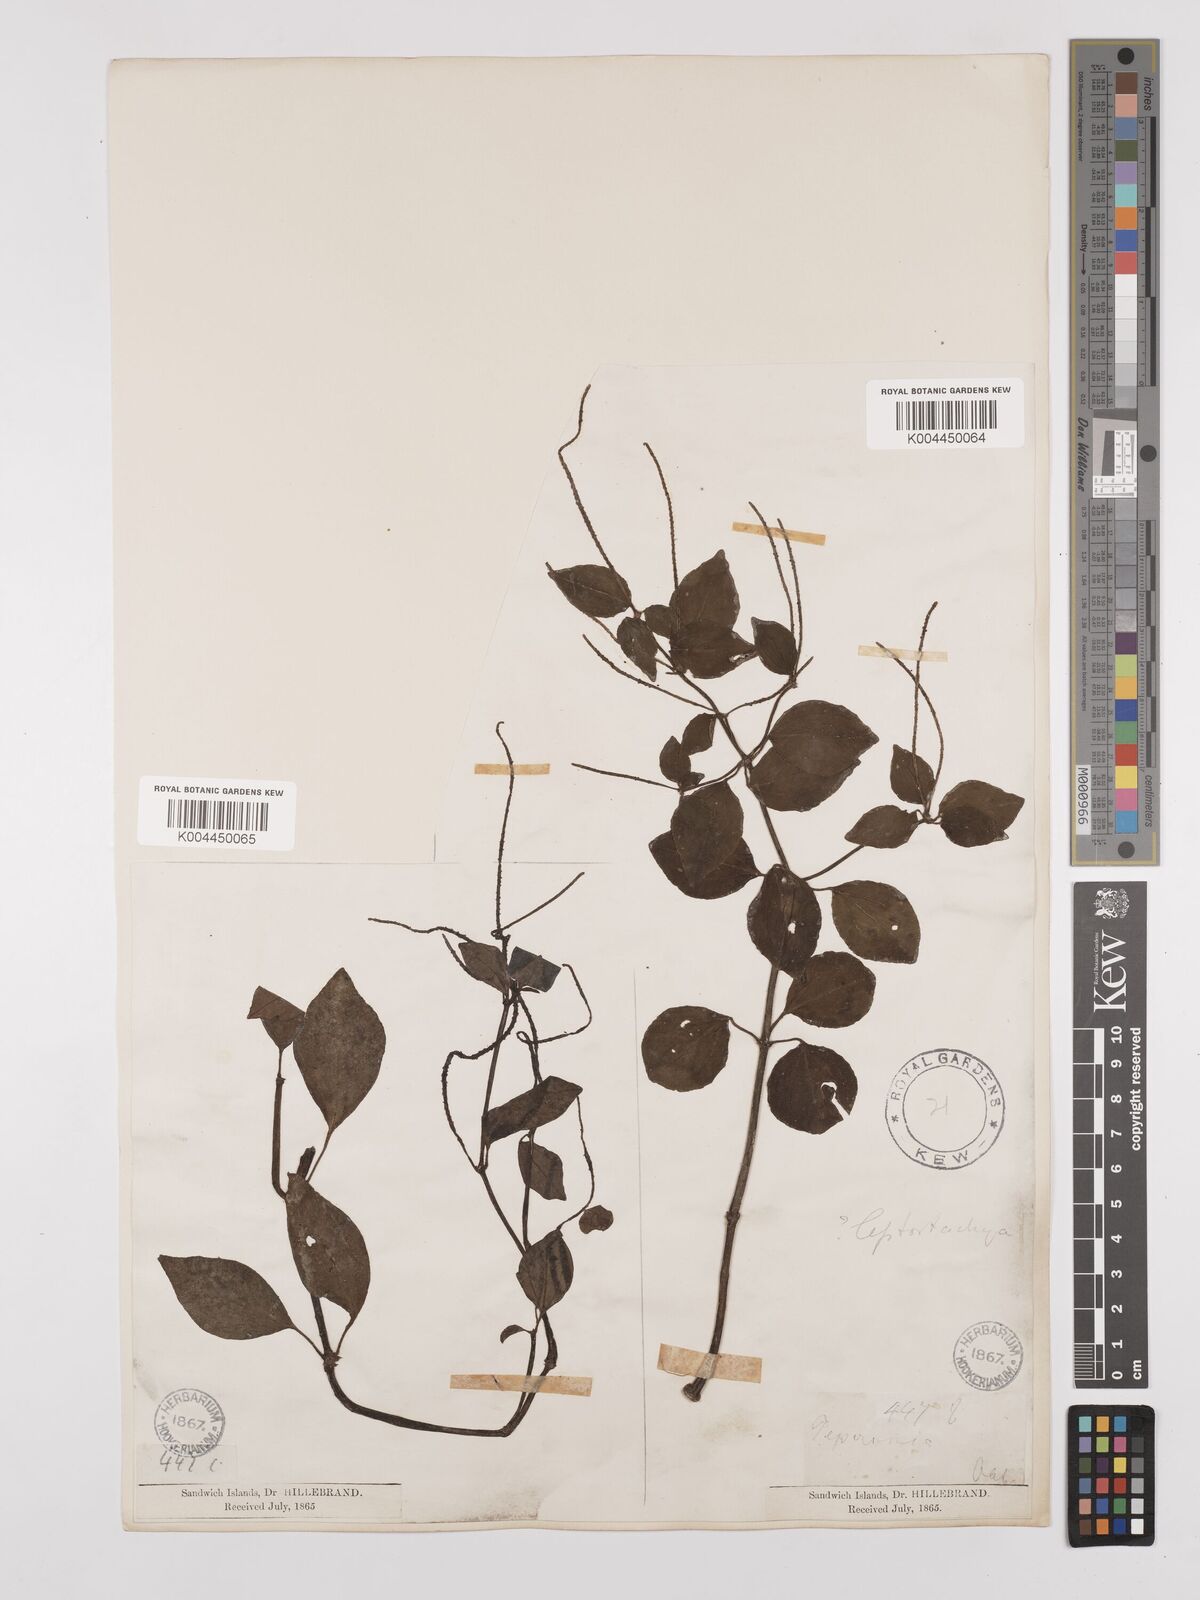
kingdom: Plantae
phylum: Tracheophyta
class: Magnoliopsida
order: Piperales
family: Piperaceae
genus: Peperomia
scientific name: Peperomia leptostachya
